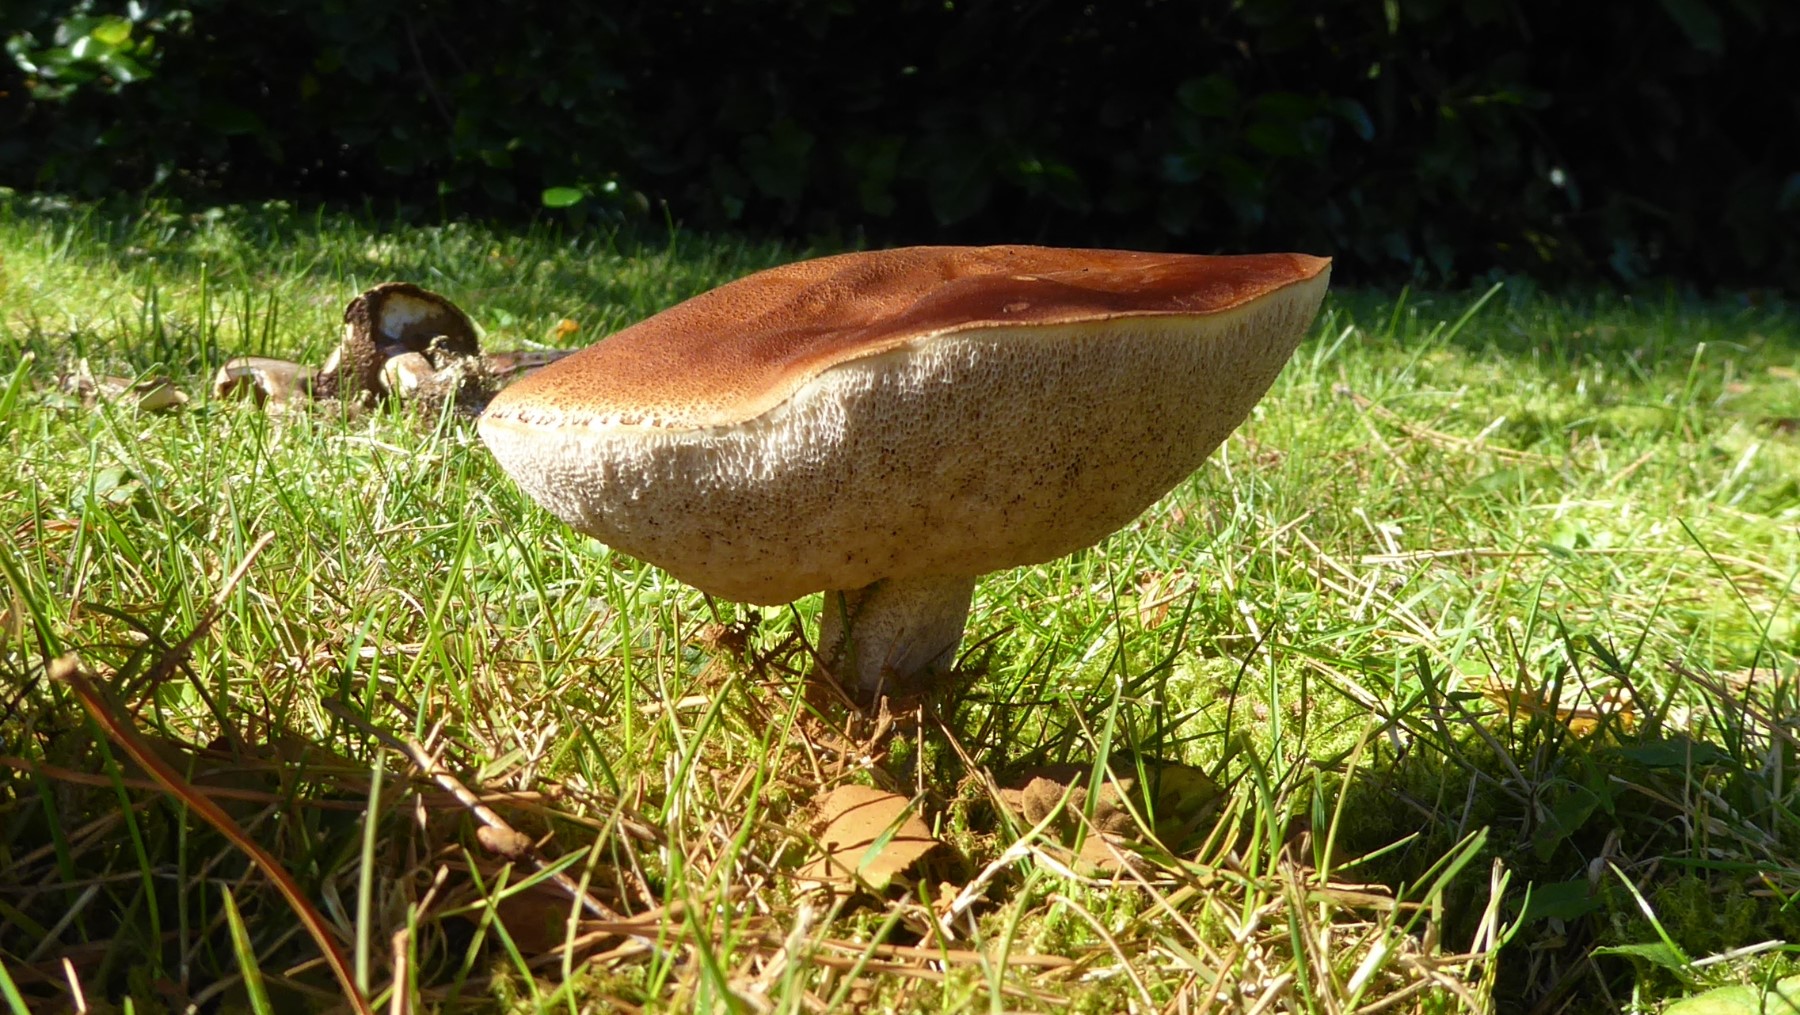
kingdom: Fungi
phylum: Basidiomycota
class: Agaricomycetes
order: Boletales
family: Boletaceae
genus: Leccinum
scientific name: Leccinum scabrum
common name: brun skælrørhat
